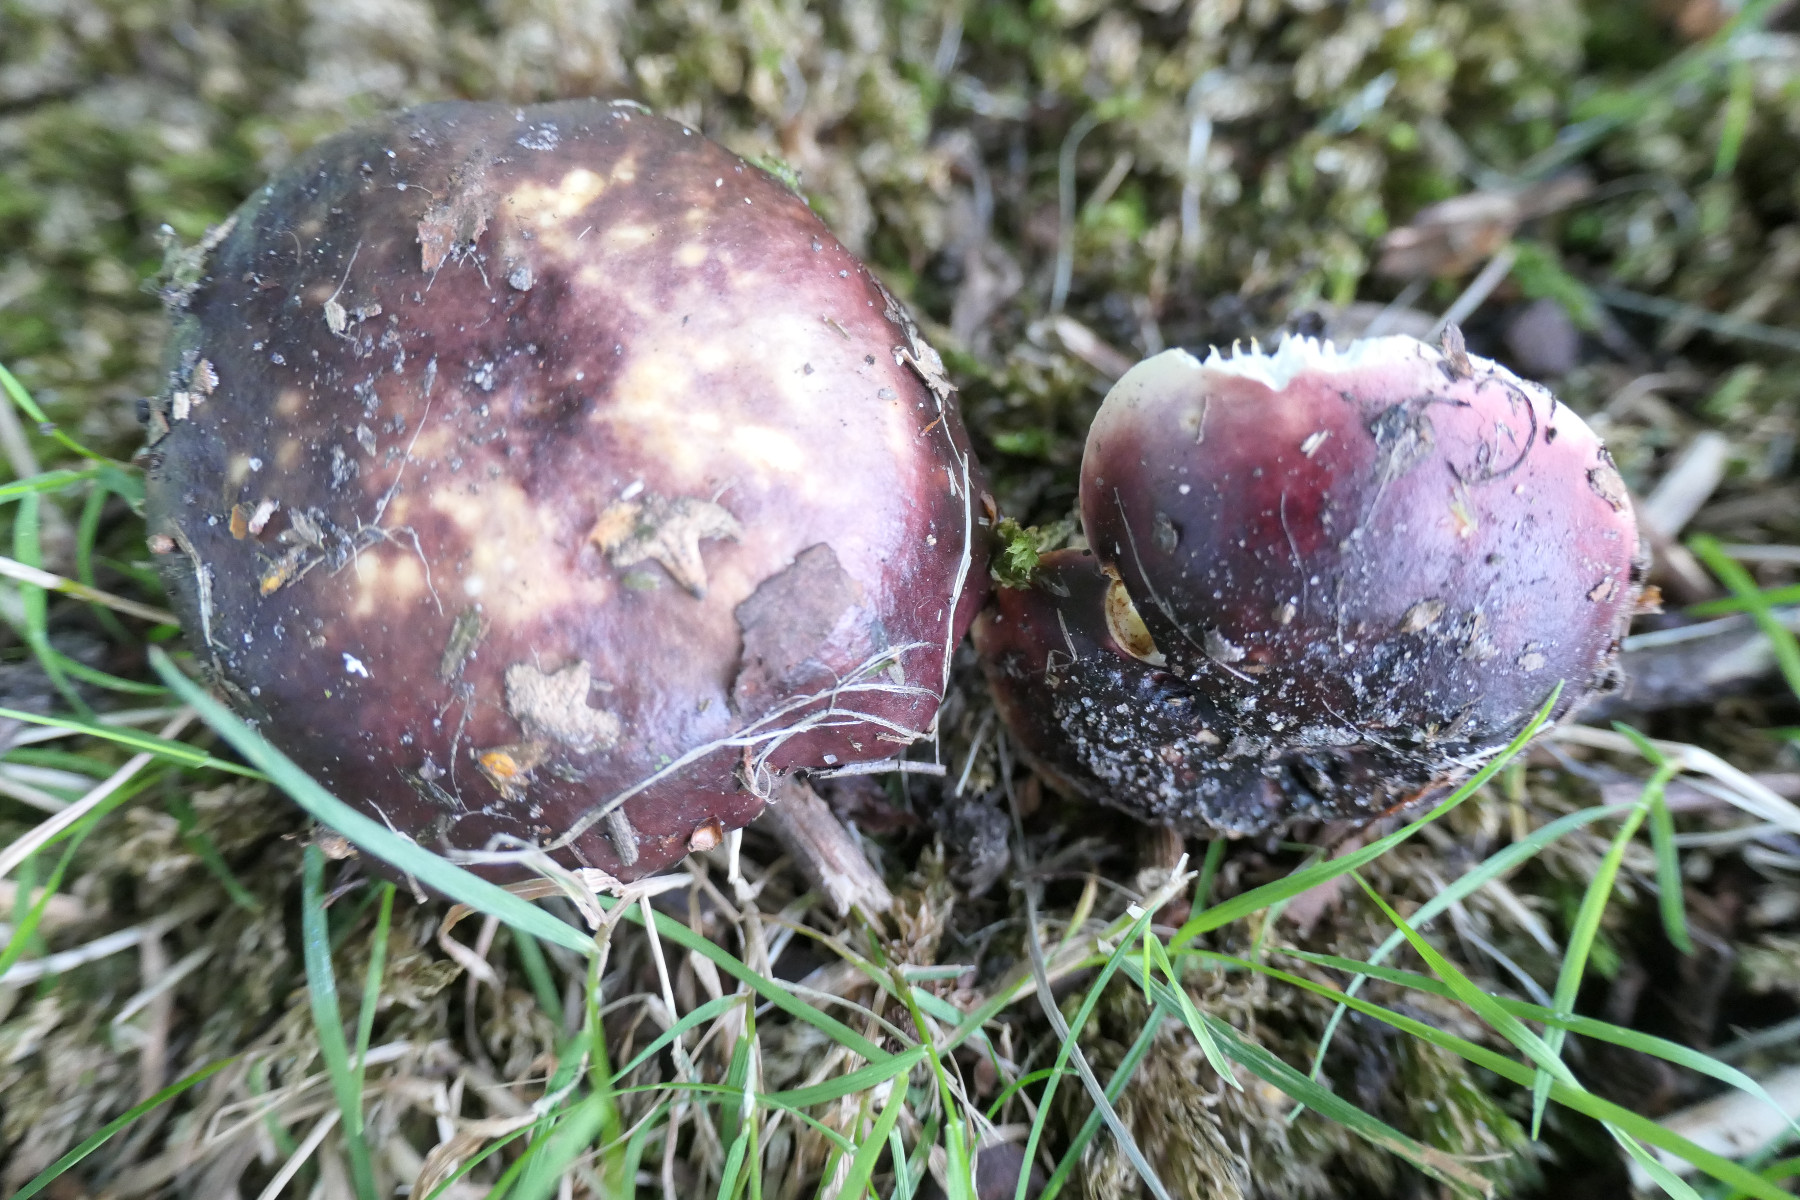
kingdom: Fungi
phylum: Basidiomycota
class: Agaricomycetes
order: Russulales
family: Russulaceae
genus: Russula
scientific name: Russula atropurpurea
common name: purpurbroget skørhat
